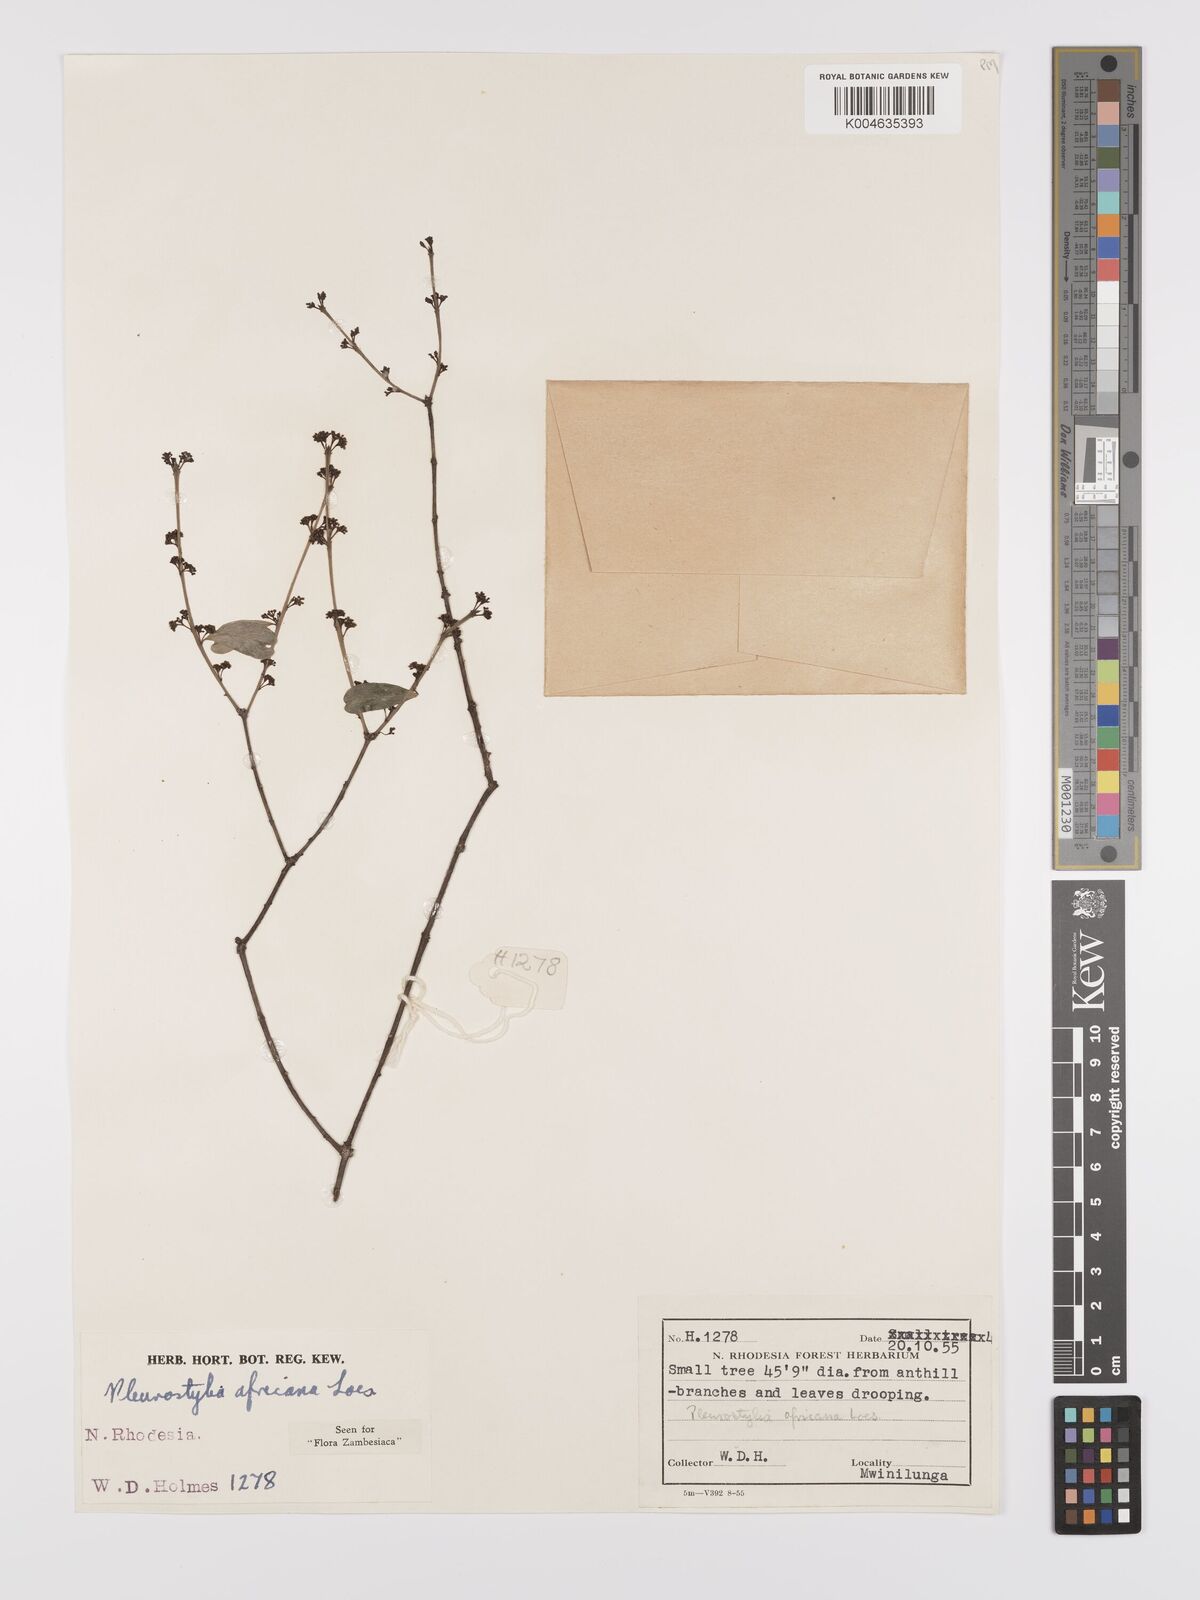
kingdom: Plantae
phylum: Tracheophyta
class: Magnoliopsida
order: Celastrales
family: Celastraceae
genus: Pleurostylia
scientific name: Pleurostylia africana
